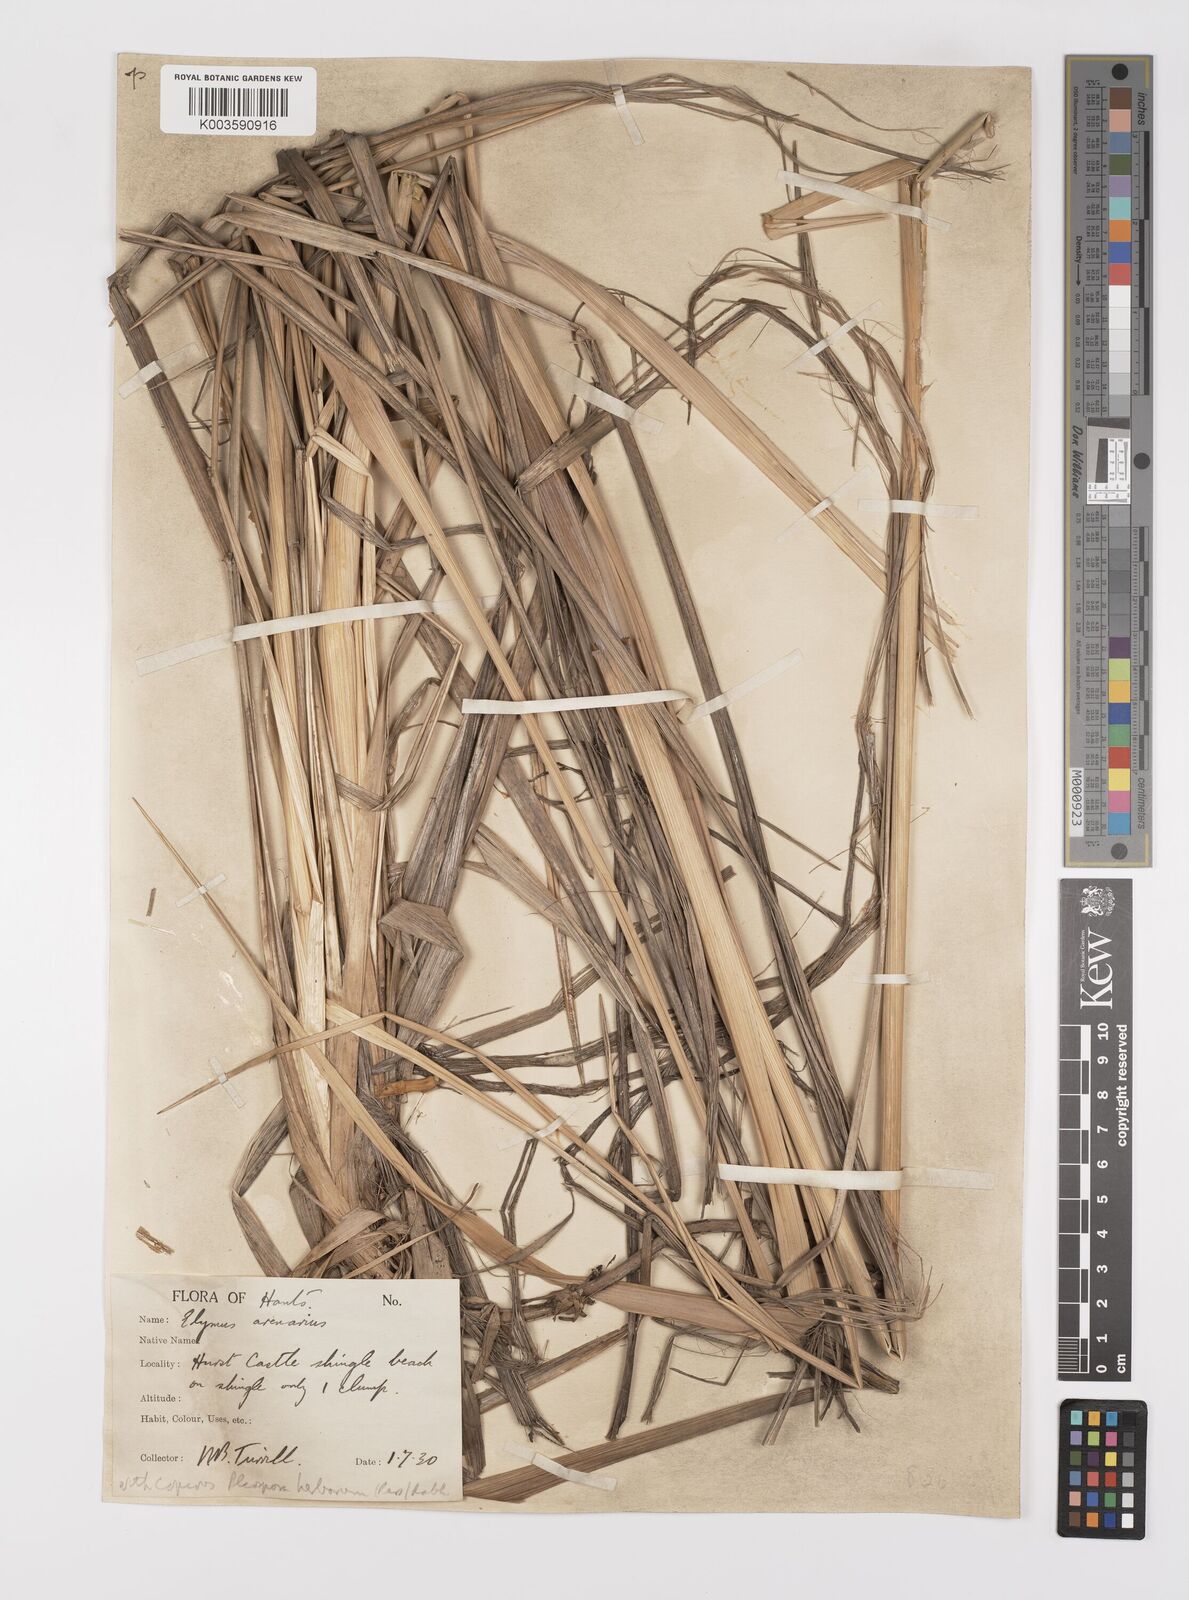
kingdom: Plantae
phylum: Tracheophyta
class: Liliopsida
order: Poales
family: Poaceae
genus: Leymus
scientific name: Leymus arenarius
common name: Lyme-grass
